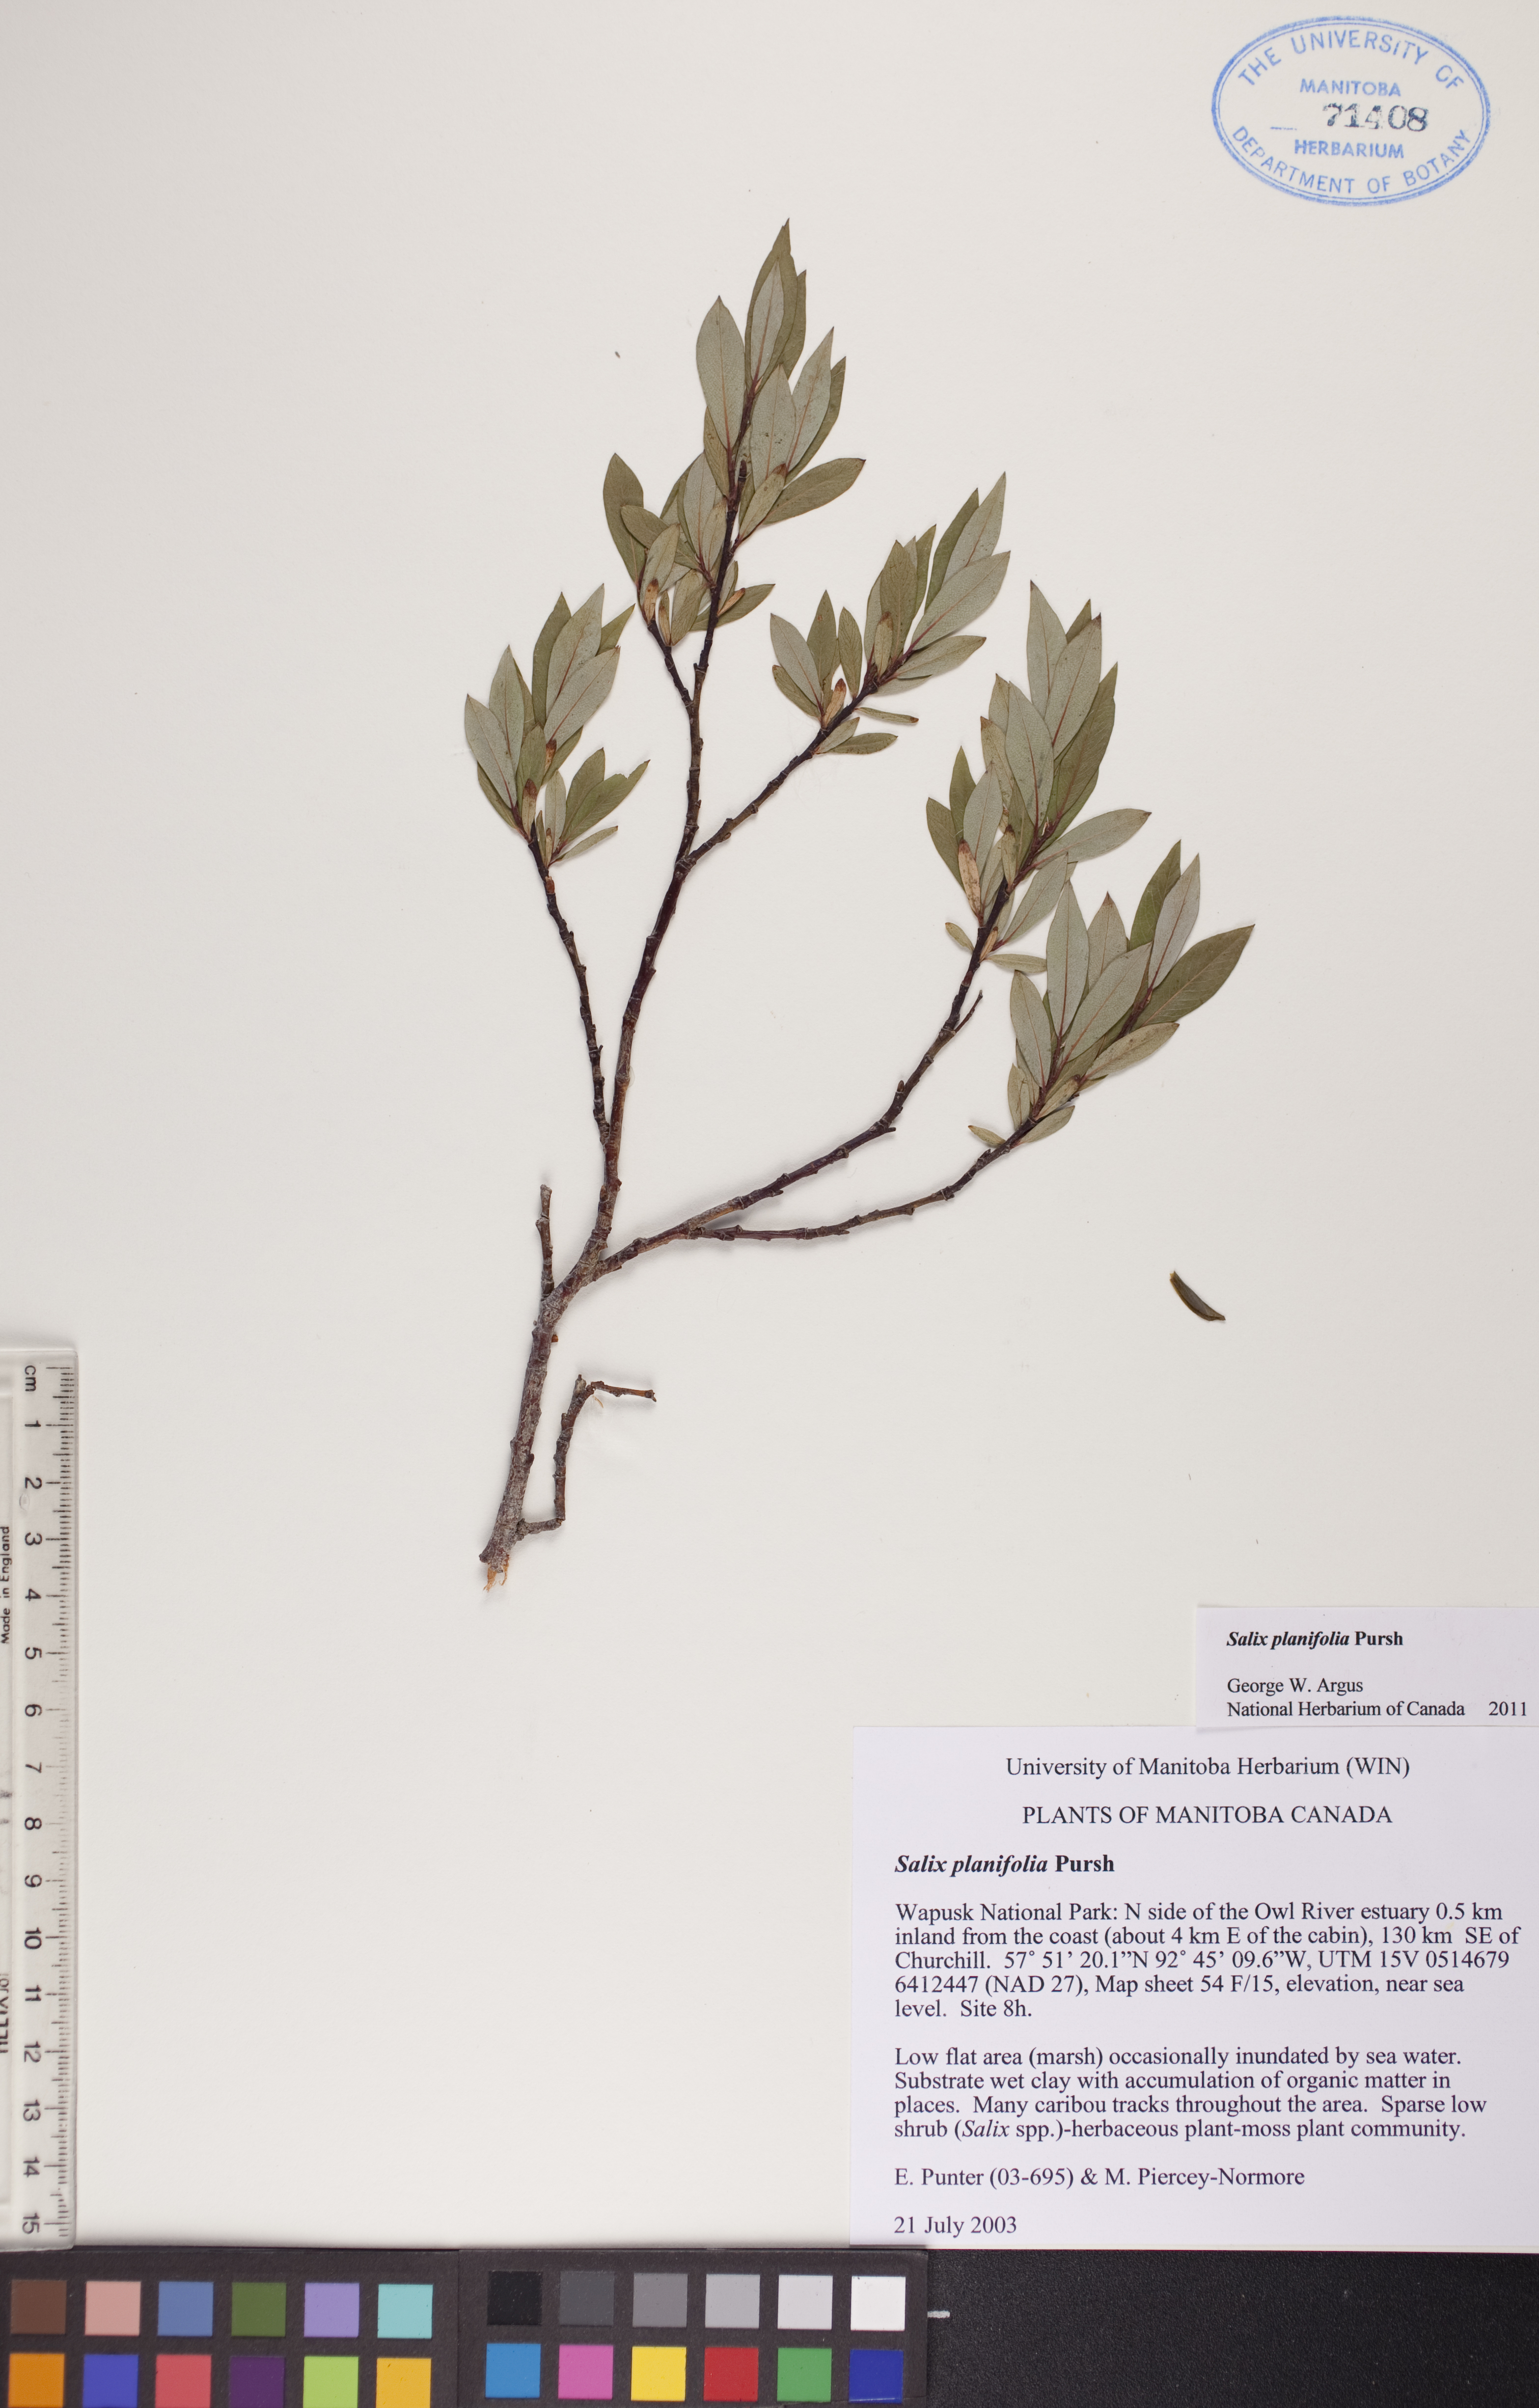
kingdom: Plantae
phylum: Tracheophyta
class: Magnoliopsida
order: Malpighiales
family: Salicaceae
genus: Salix
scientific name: Salix planifolia
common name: Mountain willow
